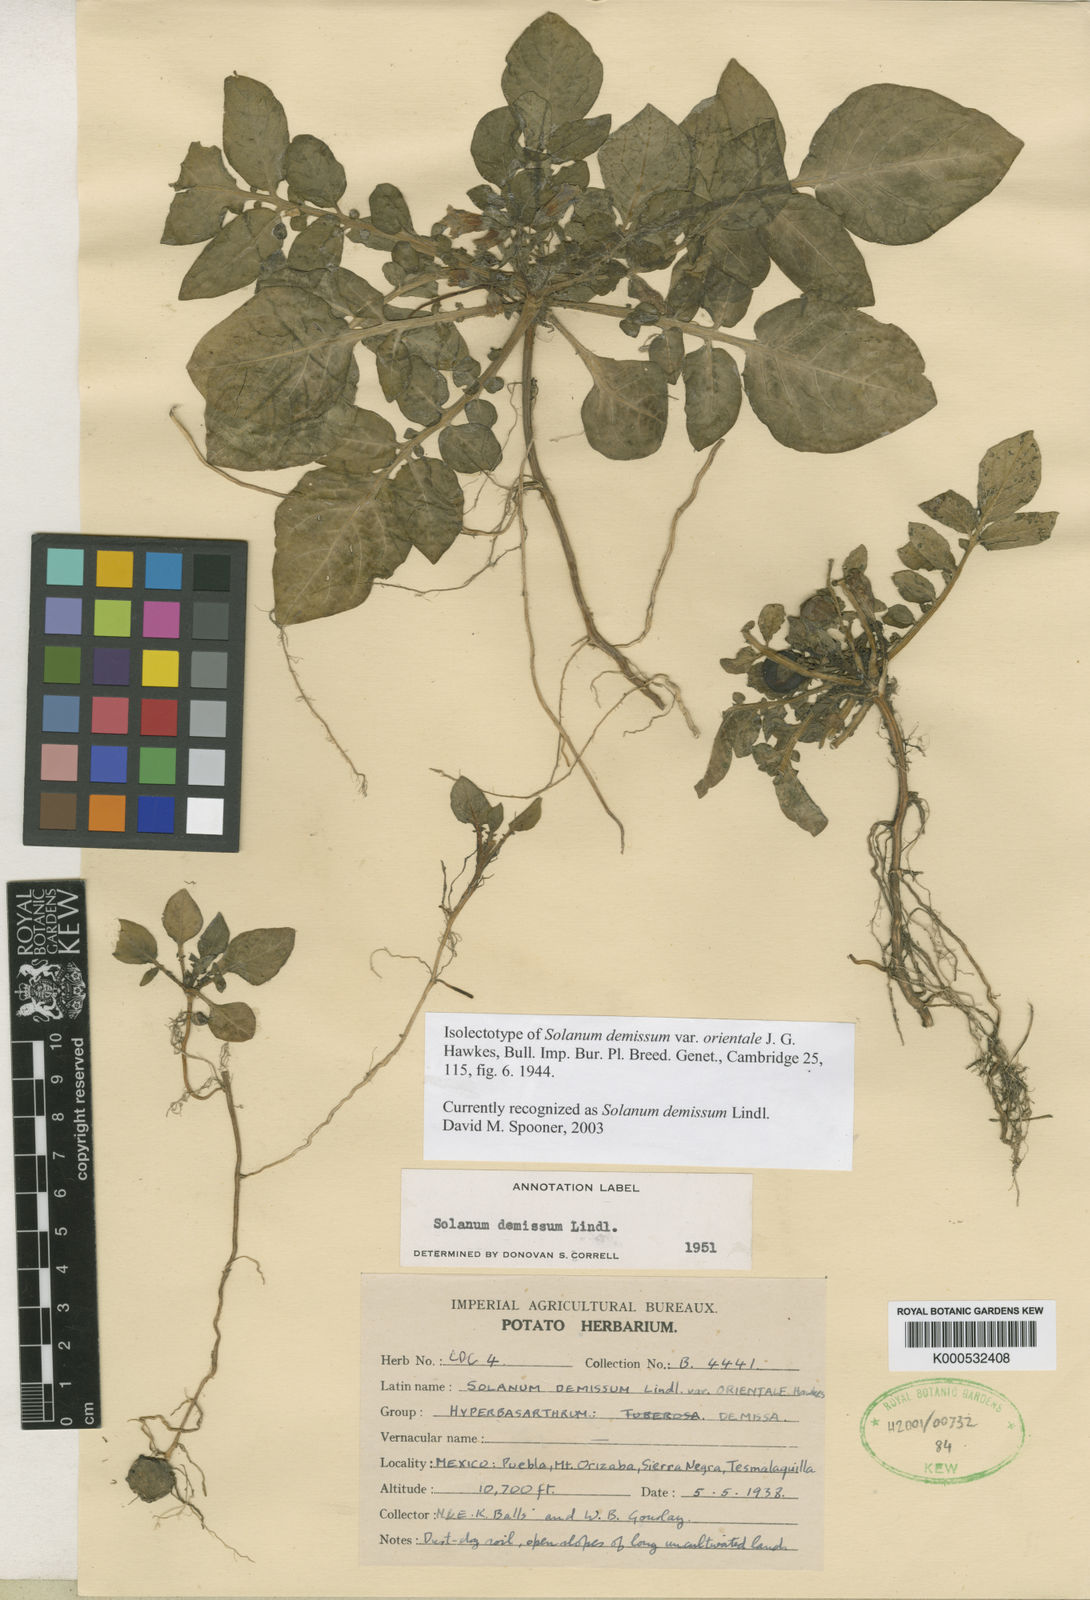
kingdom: Plantae
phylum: Tracheophyta
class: Magnoliopsida
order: Solanales
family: Solanaceae
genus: Solanum
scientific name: Solanum demissum
